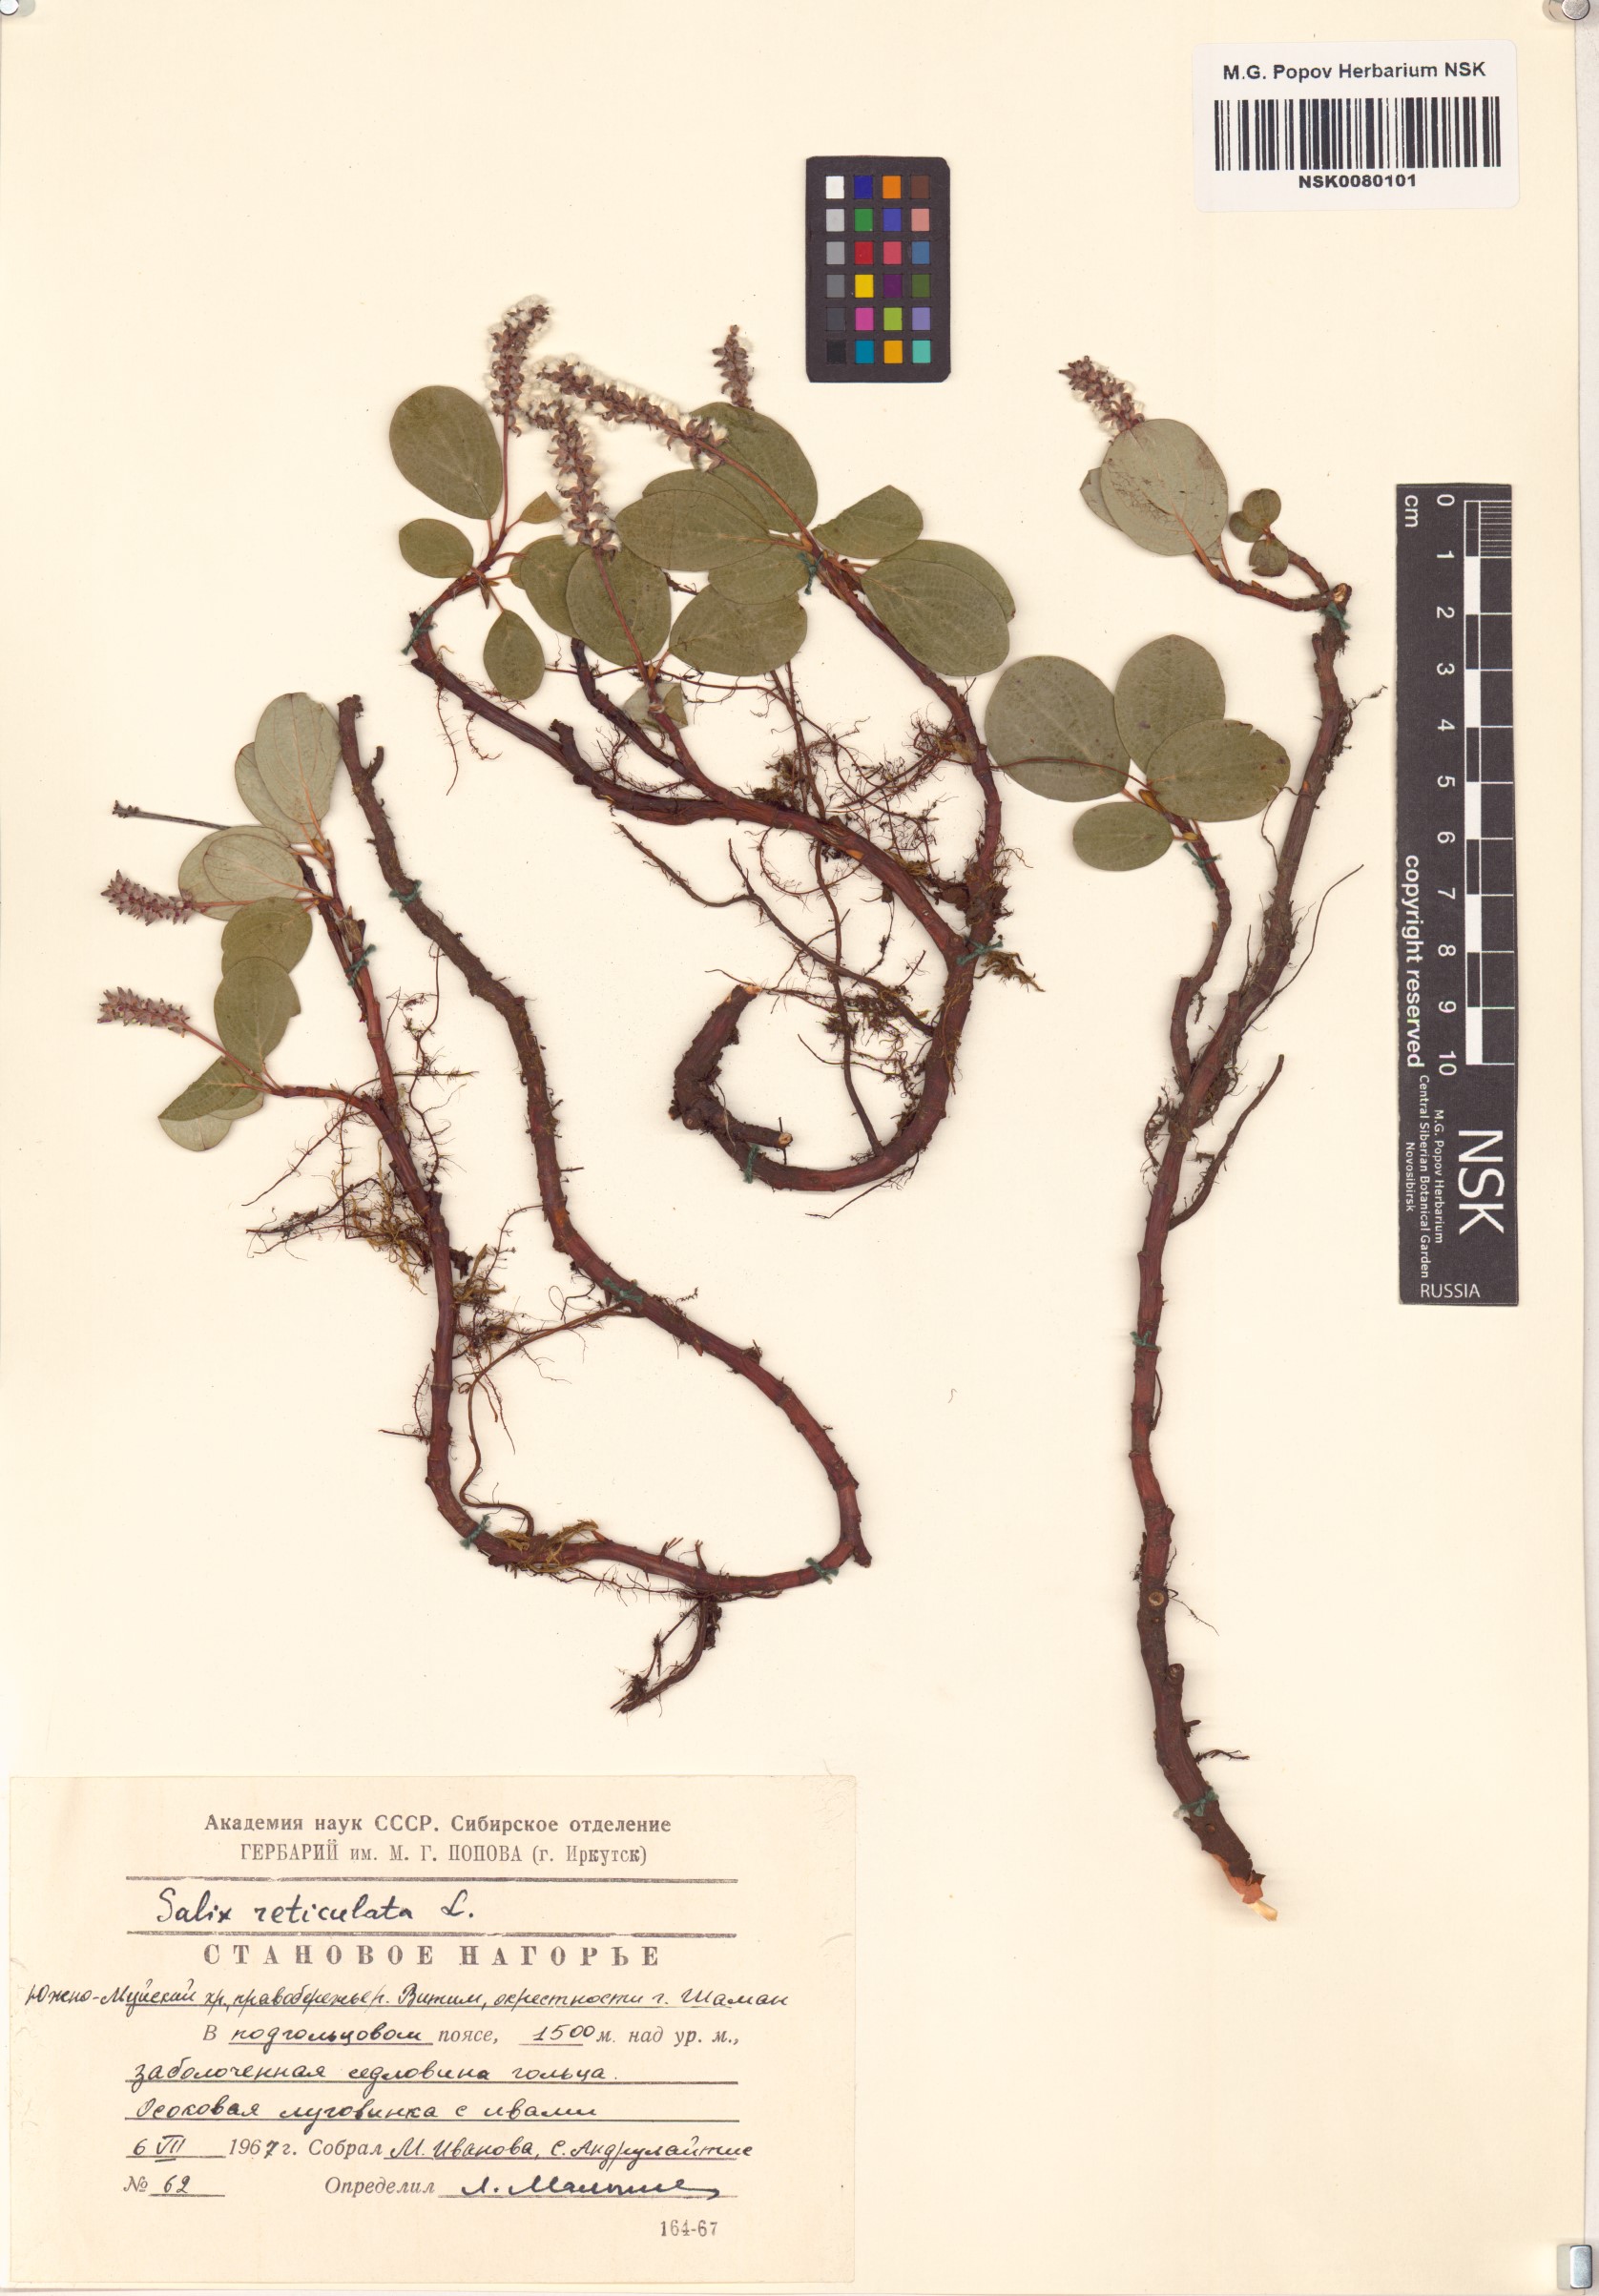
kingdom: Plantae
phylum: Tracheophyta
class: Magnoliopsida
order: Malpighiales
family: Salicaceae
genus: Salix
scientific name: Salix reticulata
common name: Net-leaved willow
